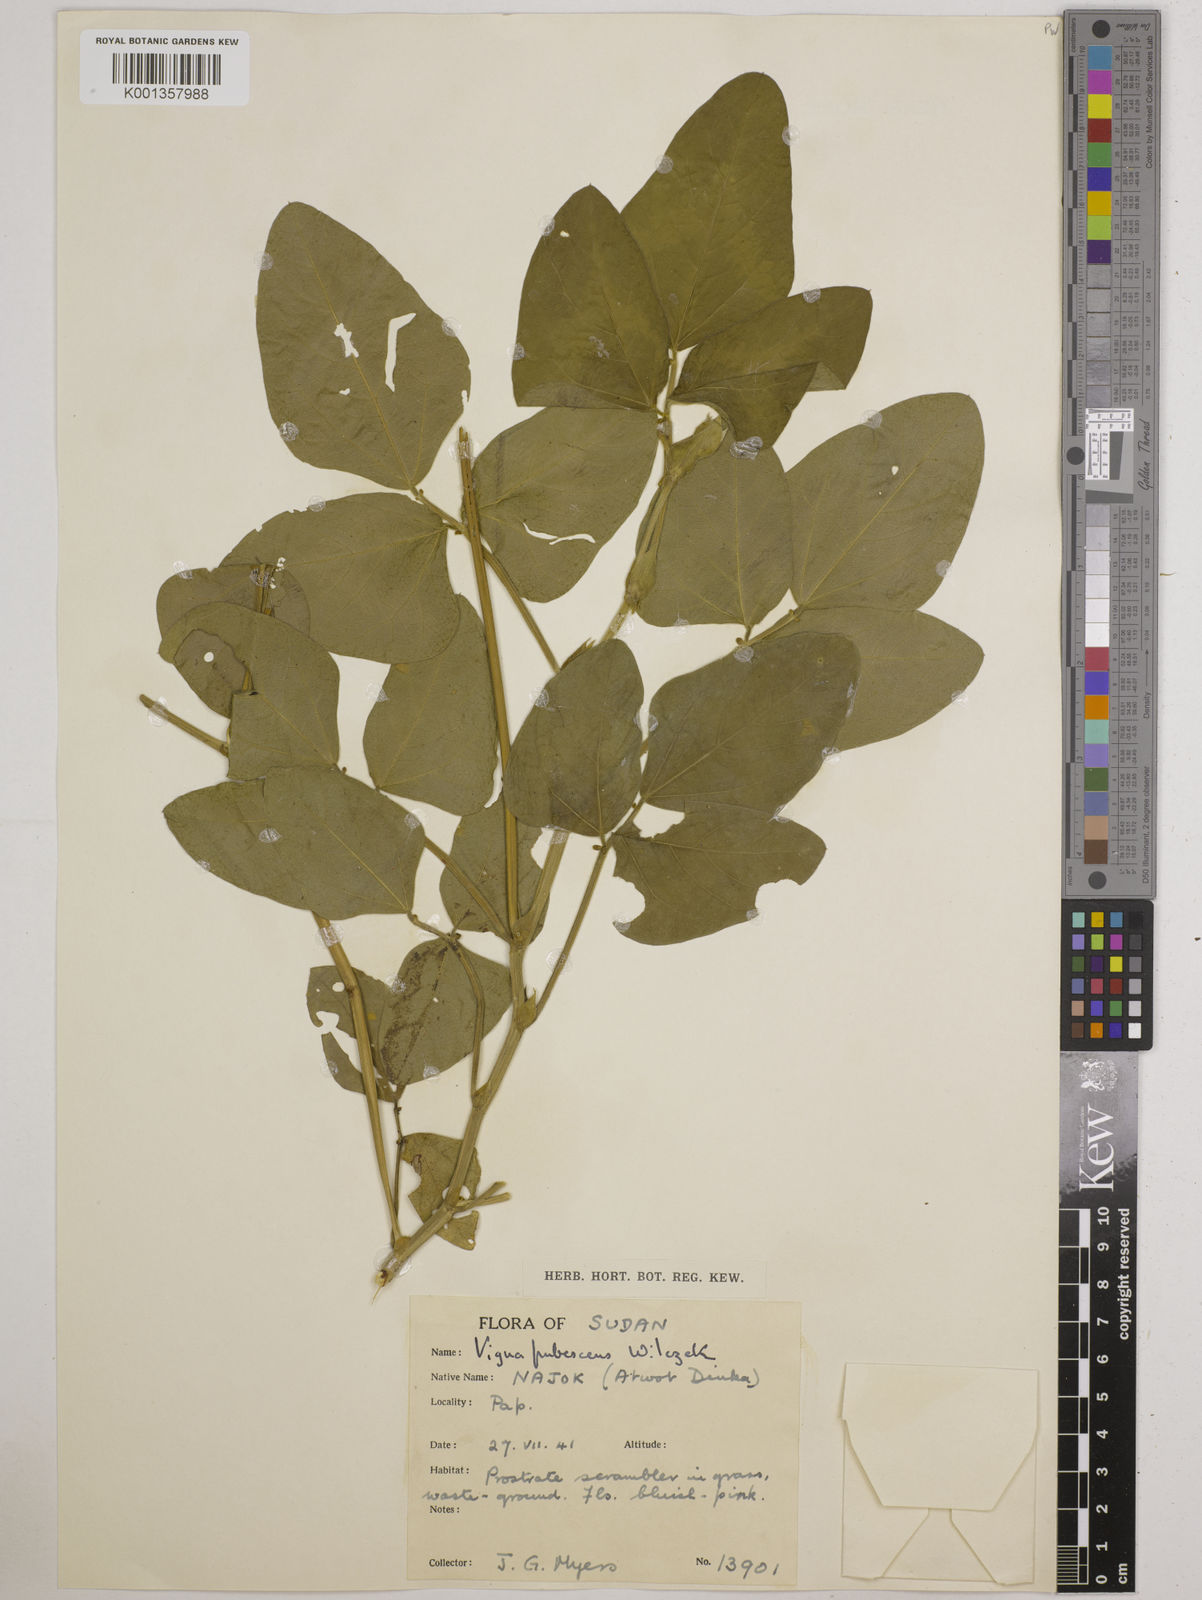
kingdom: Plantae
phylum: Tracheophyta
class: Magnoliopsida
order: Fabales
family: Fabaceae
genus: Vigna
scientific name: Vigna unguiculata
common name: Cowpea
